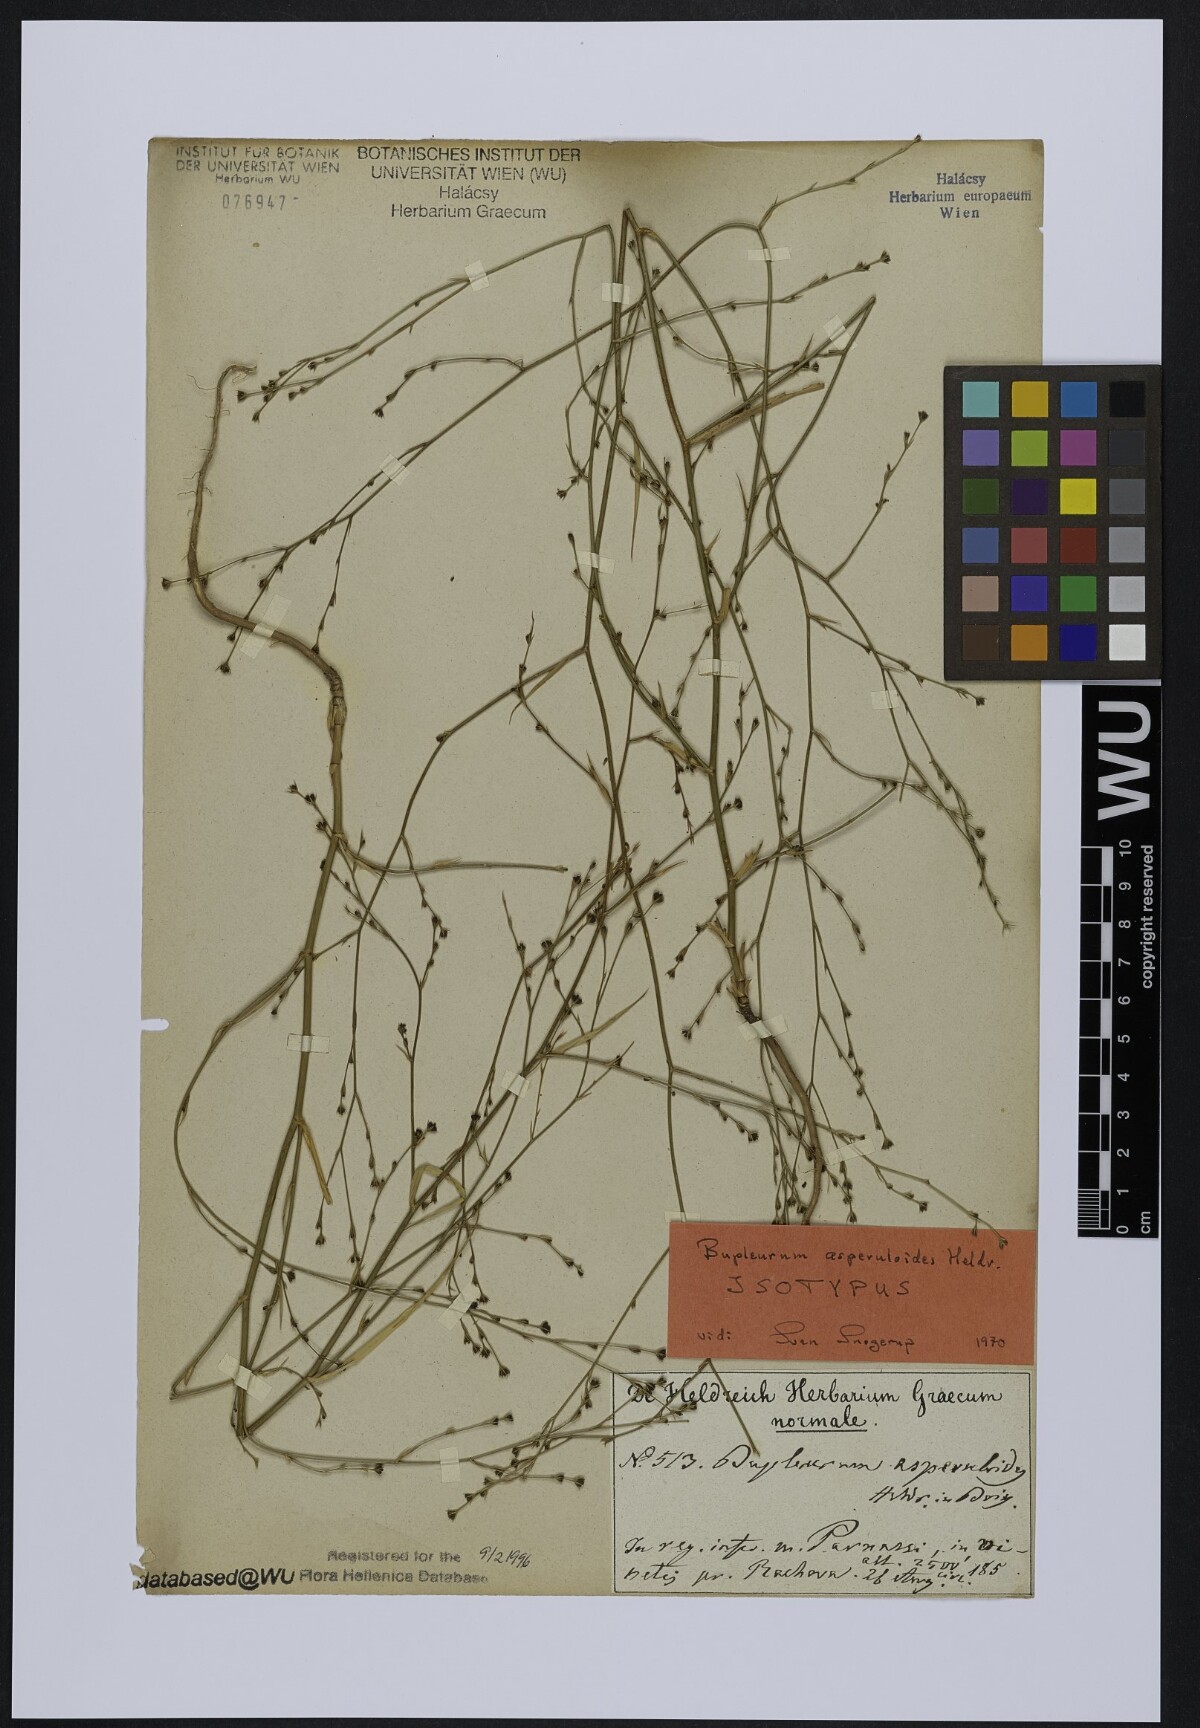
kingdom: Plantae
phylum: Tracheophyta
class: Magnoliopsida
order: Apiales
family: Apiaceae
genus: Bupleurum
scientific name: Bupleurum asperuloides
